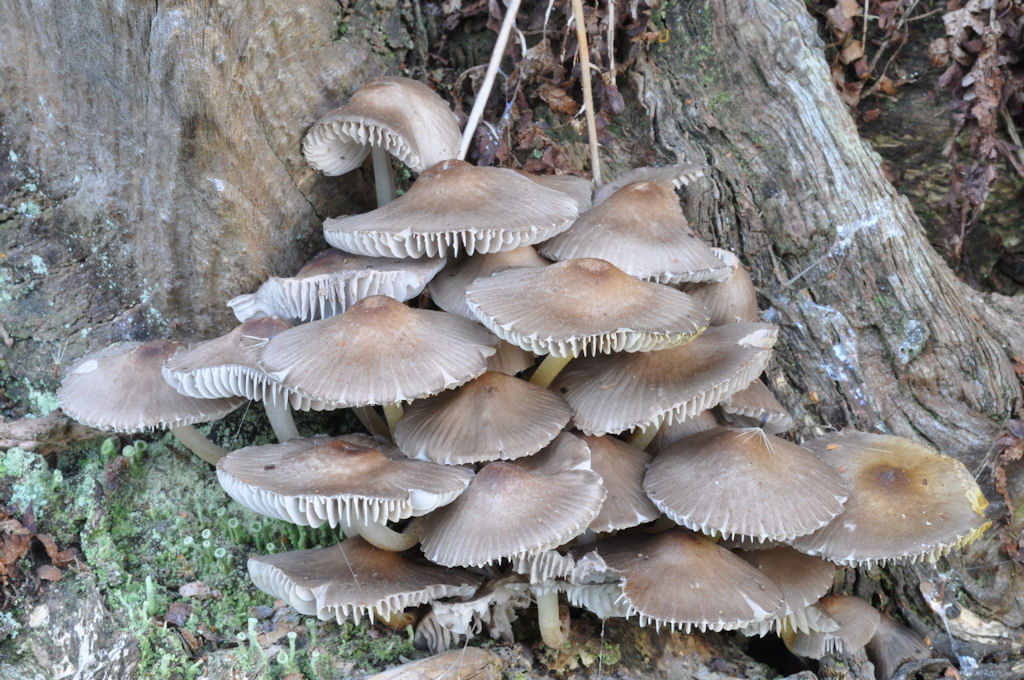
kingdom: Fungi
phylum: Basidiomycota
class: Agaricomycetes
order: Agaricales
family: Mycenaceae
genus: Mycena
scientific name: Mycena inclinata
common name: nikkende huesvamp
